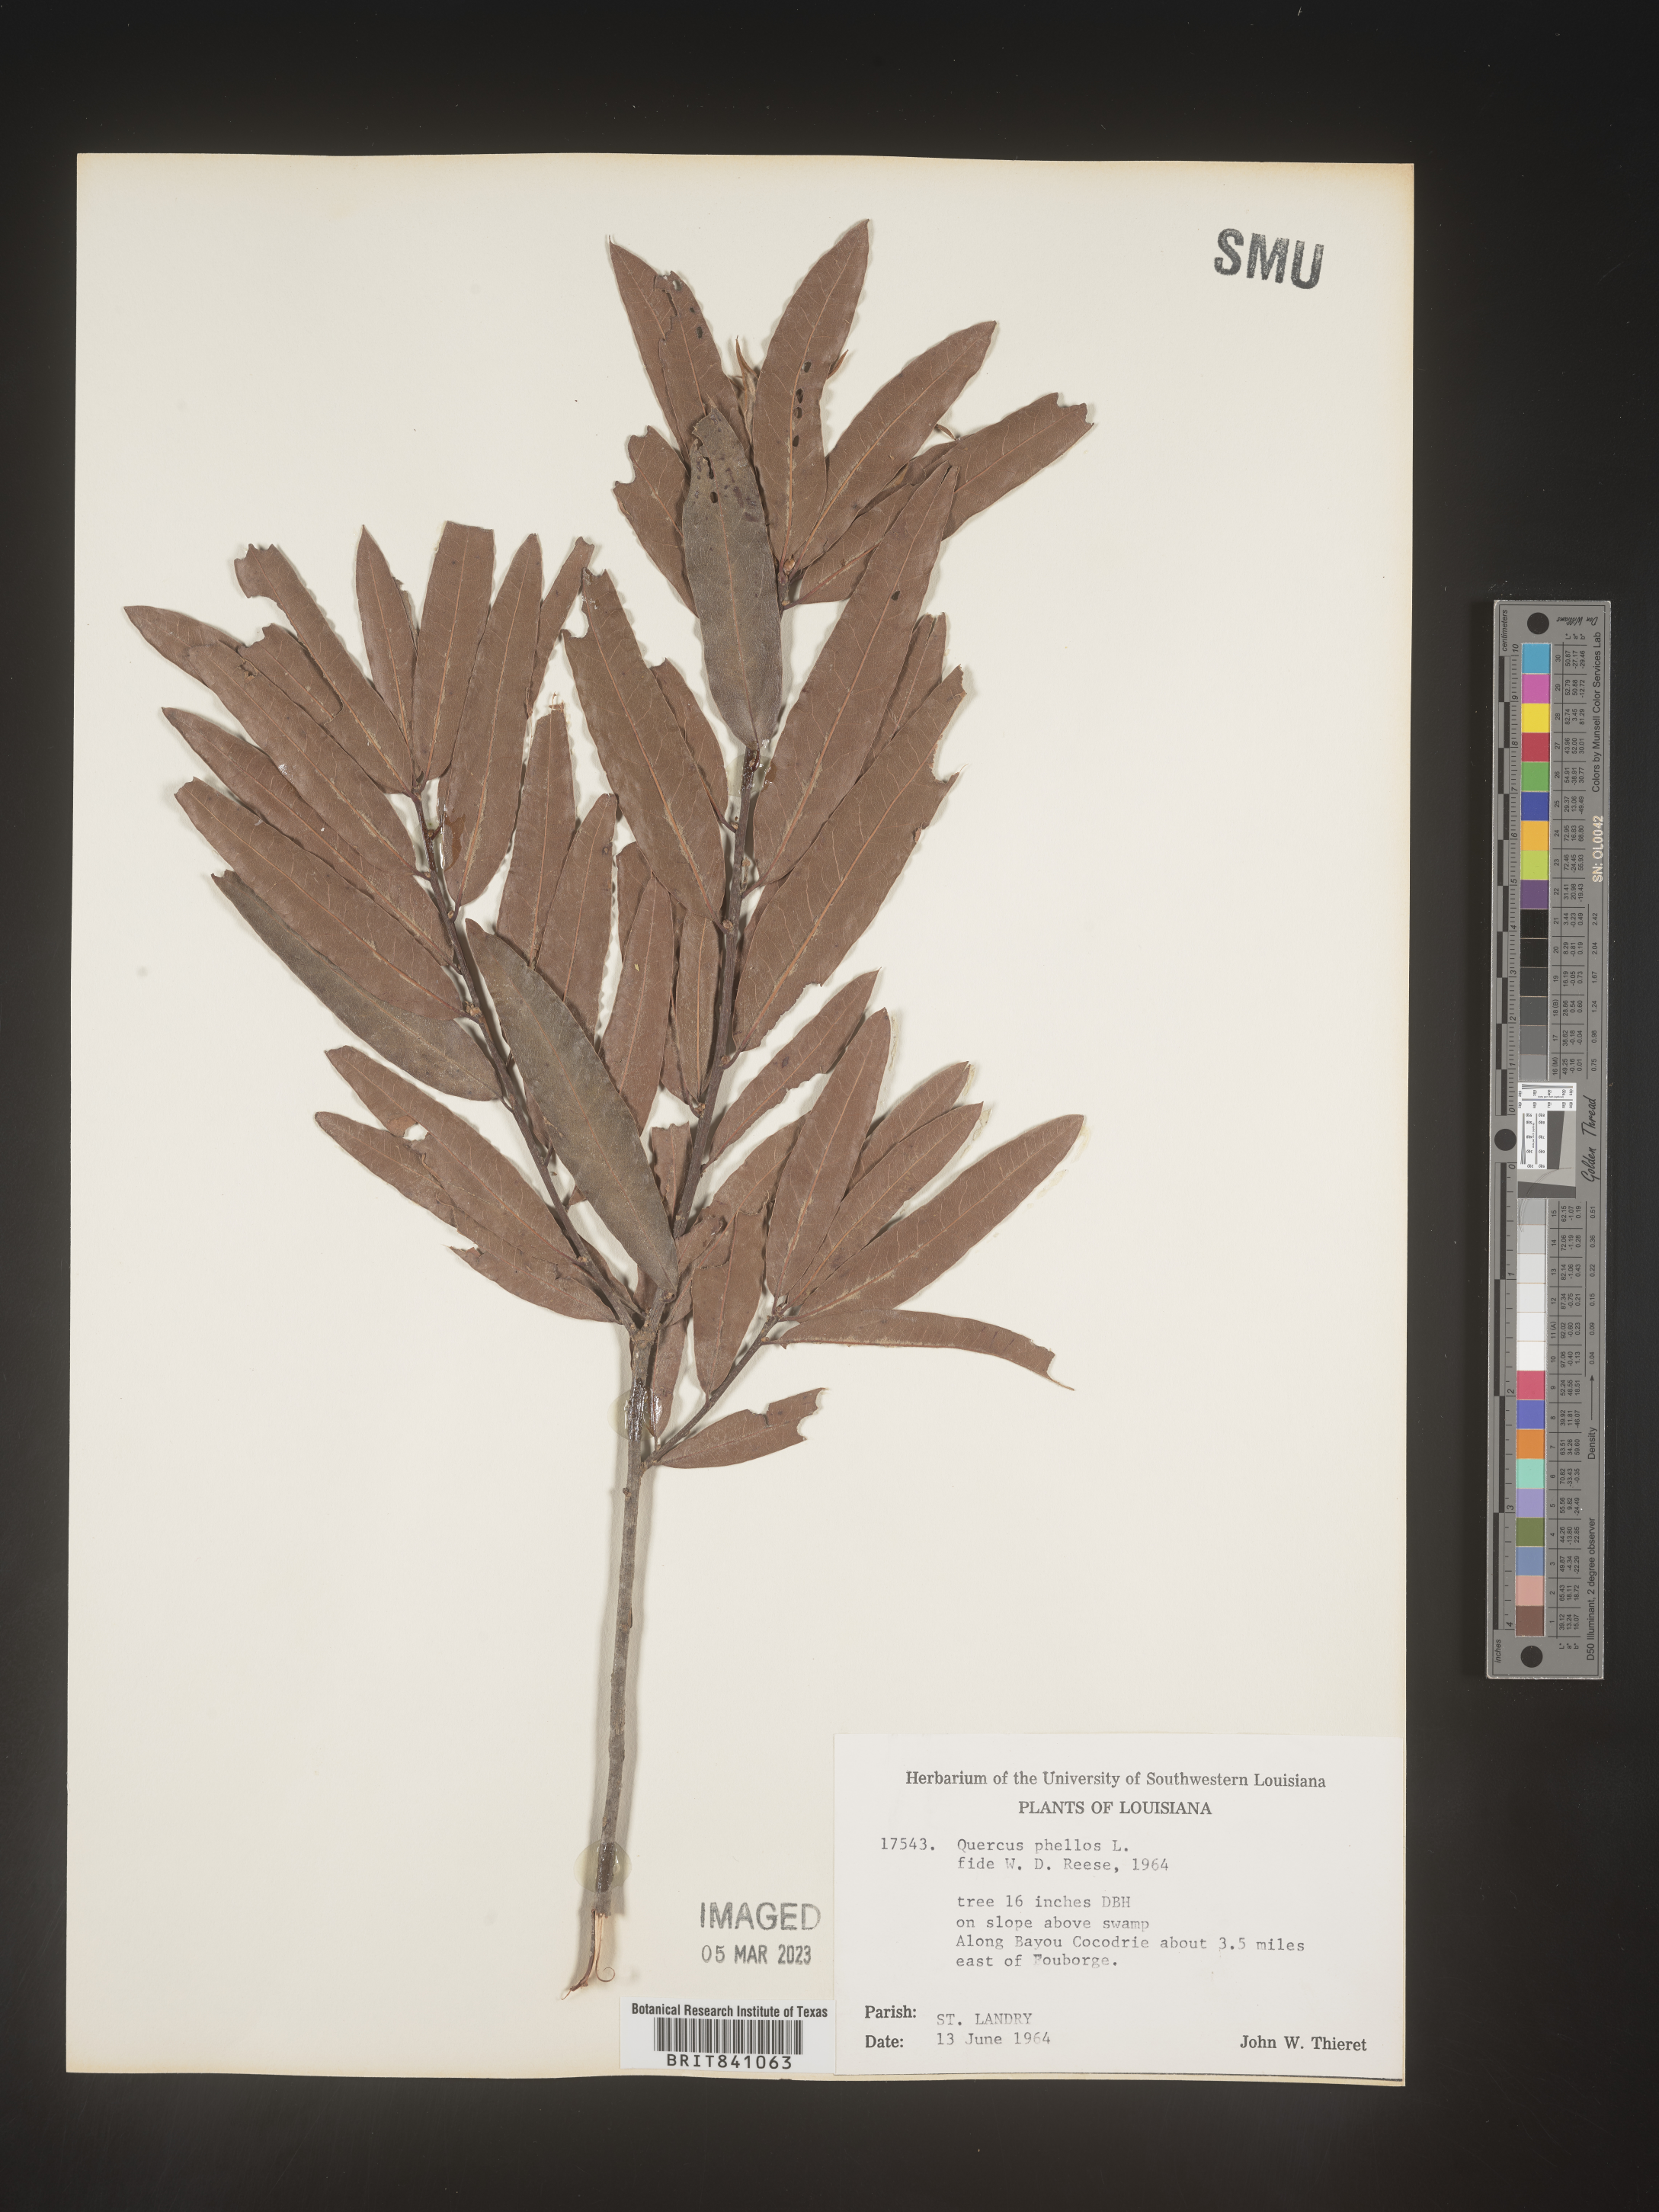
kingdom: Plantae
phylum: Tracheophyta
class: Magnoliopsida
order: Fagales
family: Fagaceae
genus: Quercus
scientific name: Quercus phellos
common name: Willow oak
